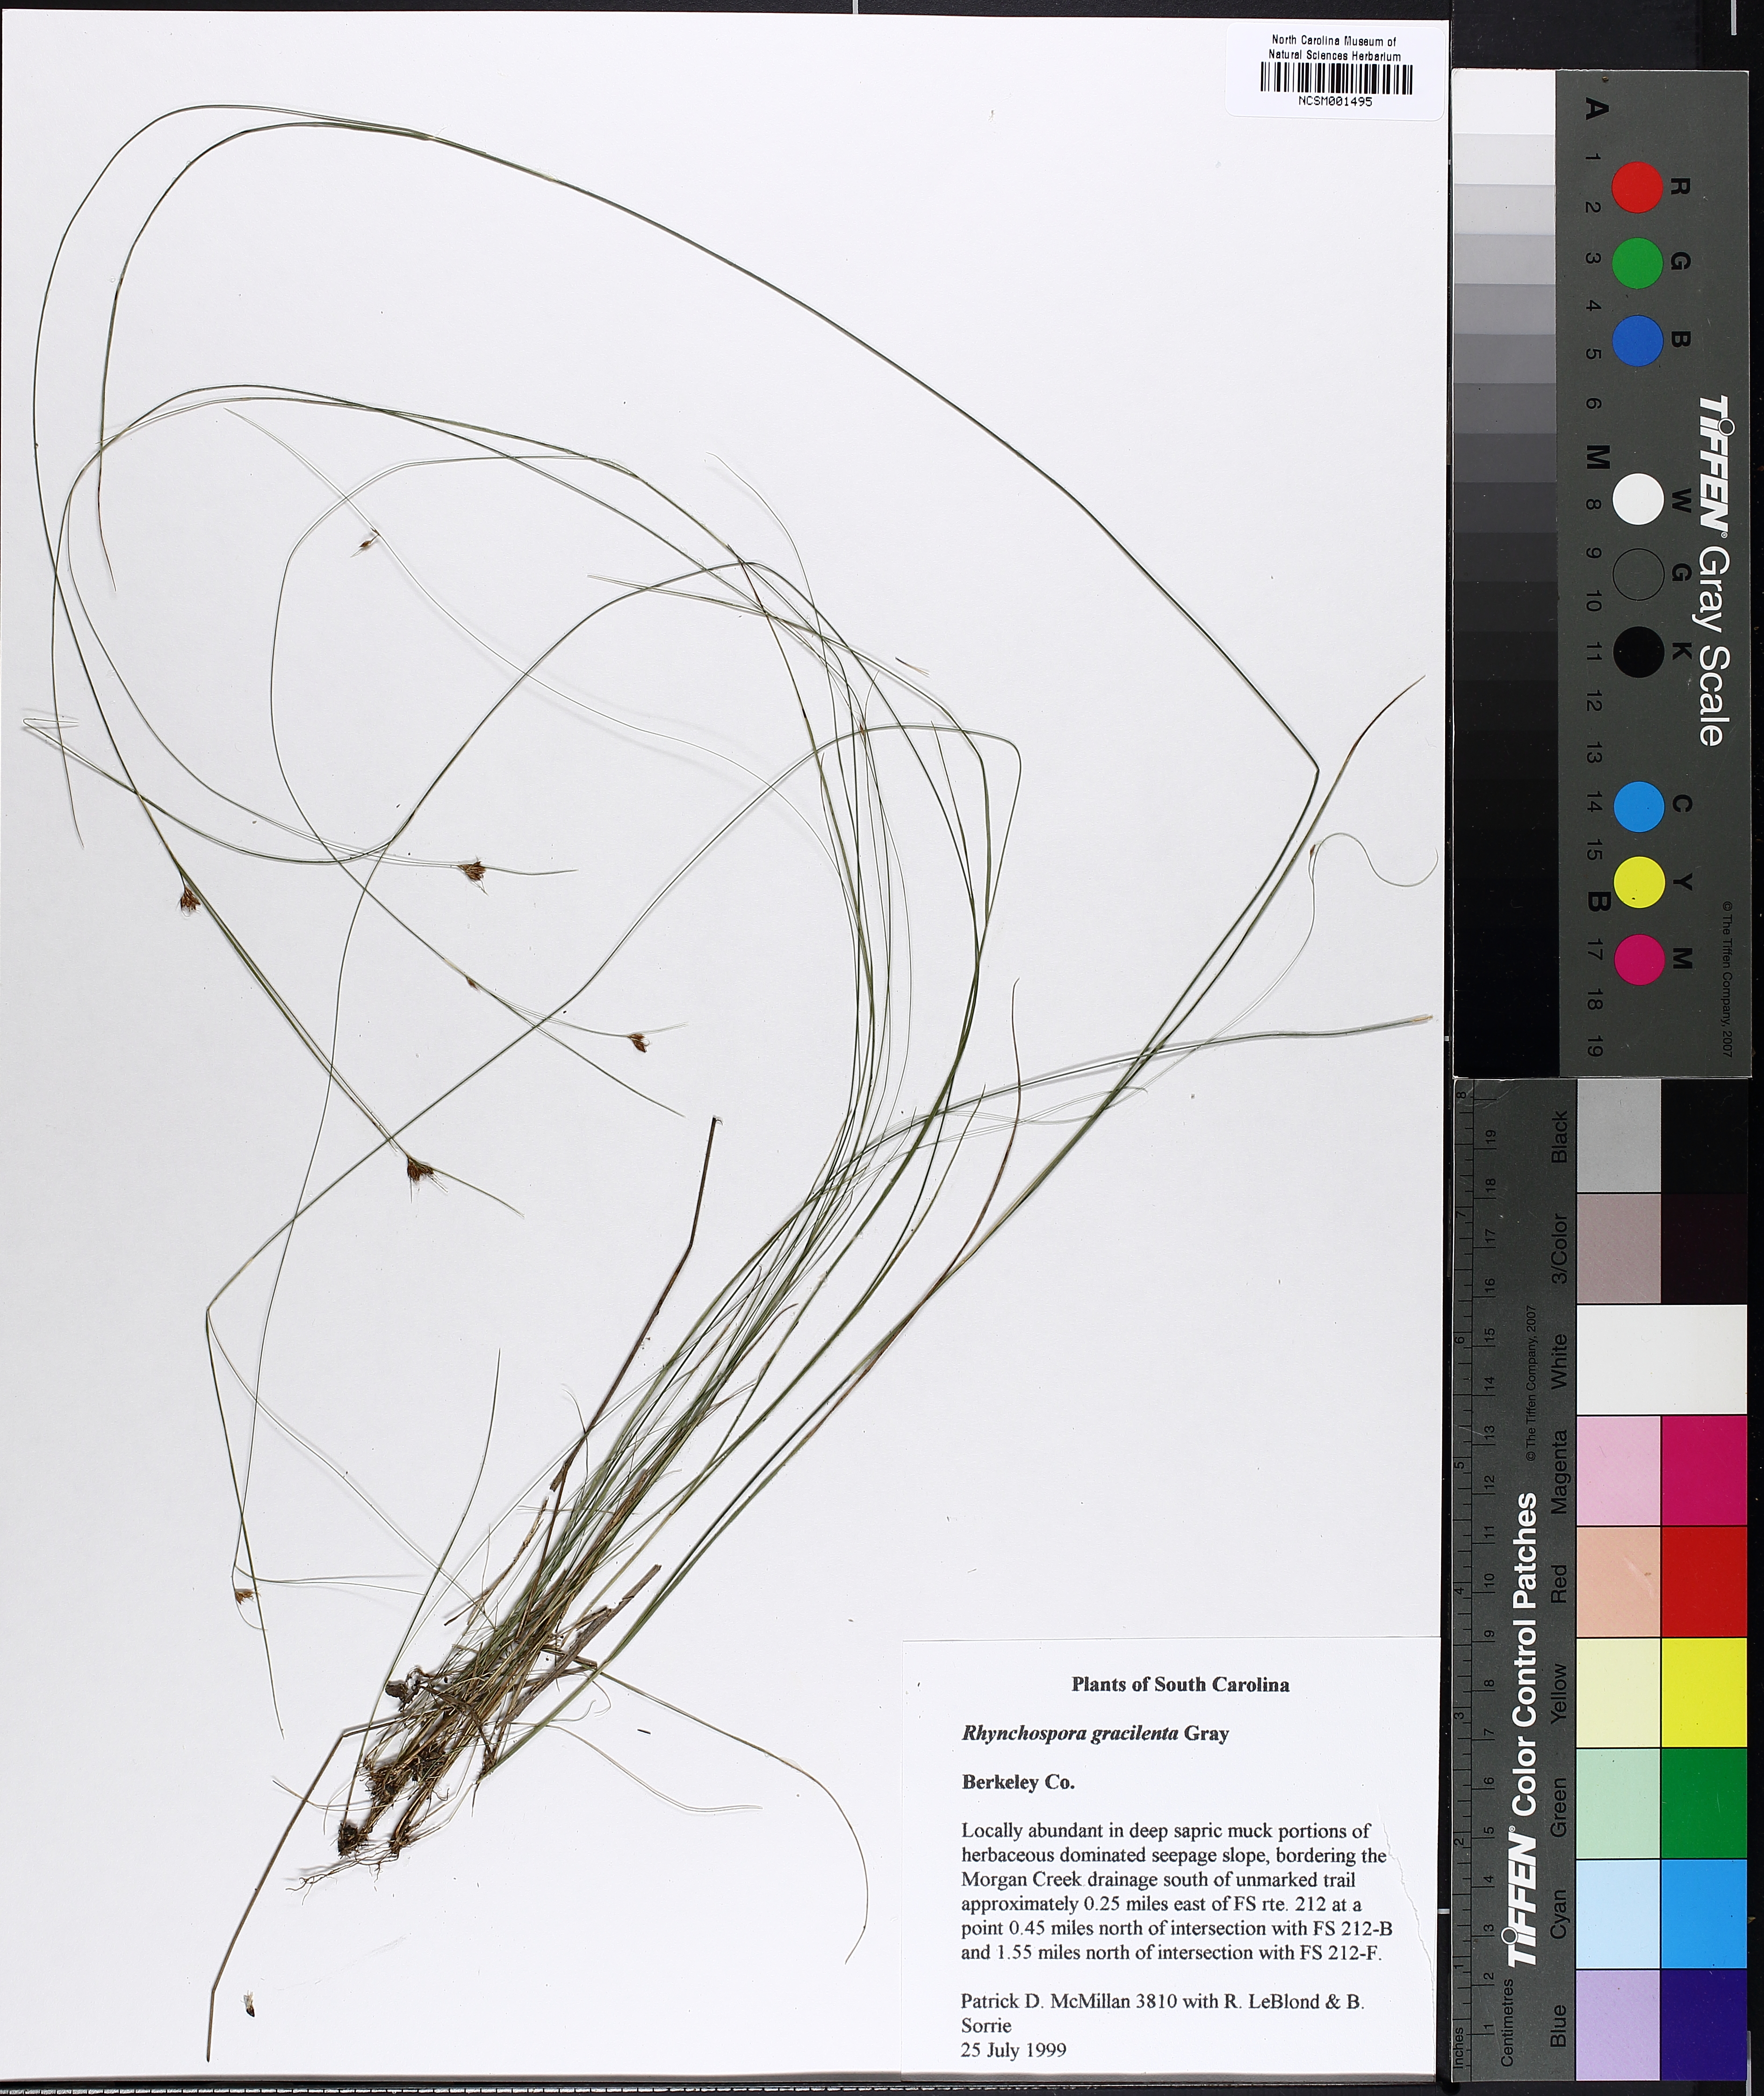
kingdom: Plantae
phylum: Tracheophyta
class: Liliopsida
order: Poales
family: Cyperaceae
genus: Rhynchospora
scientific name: Rhynchospora gracilenta
